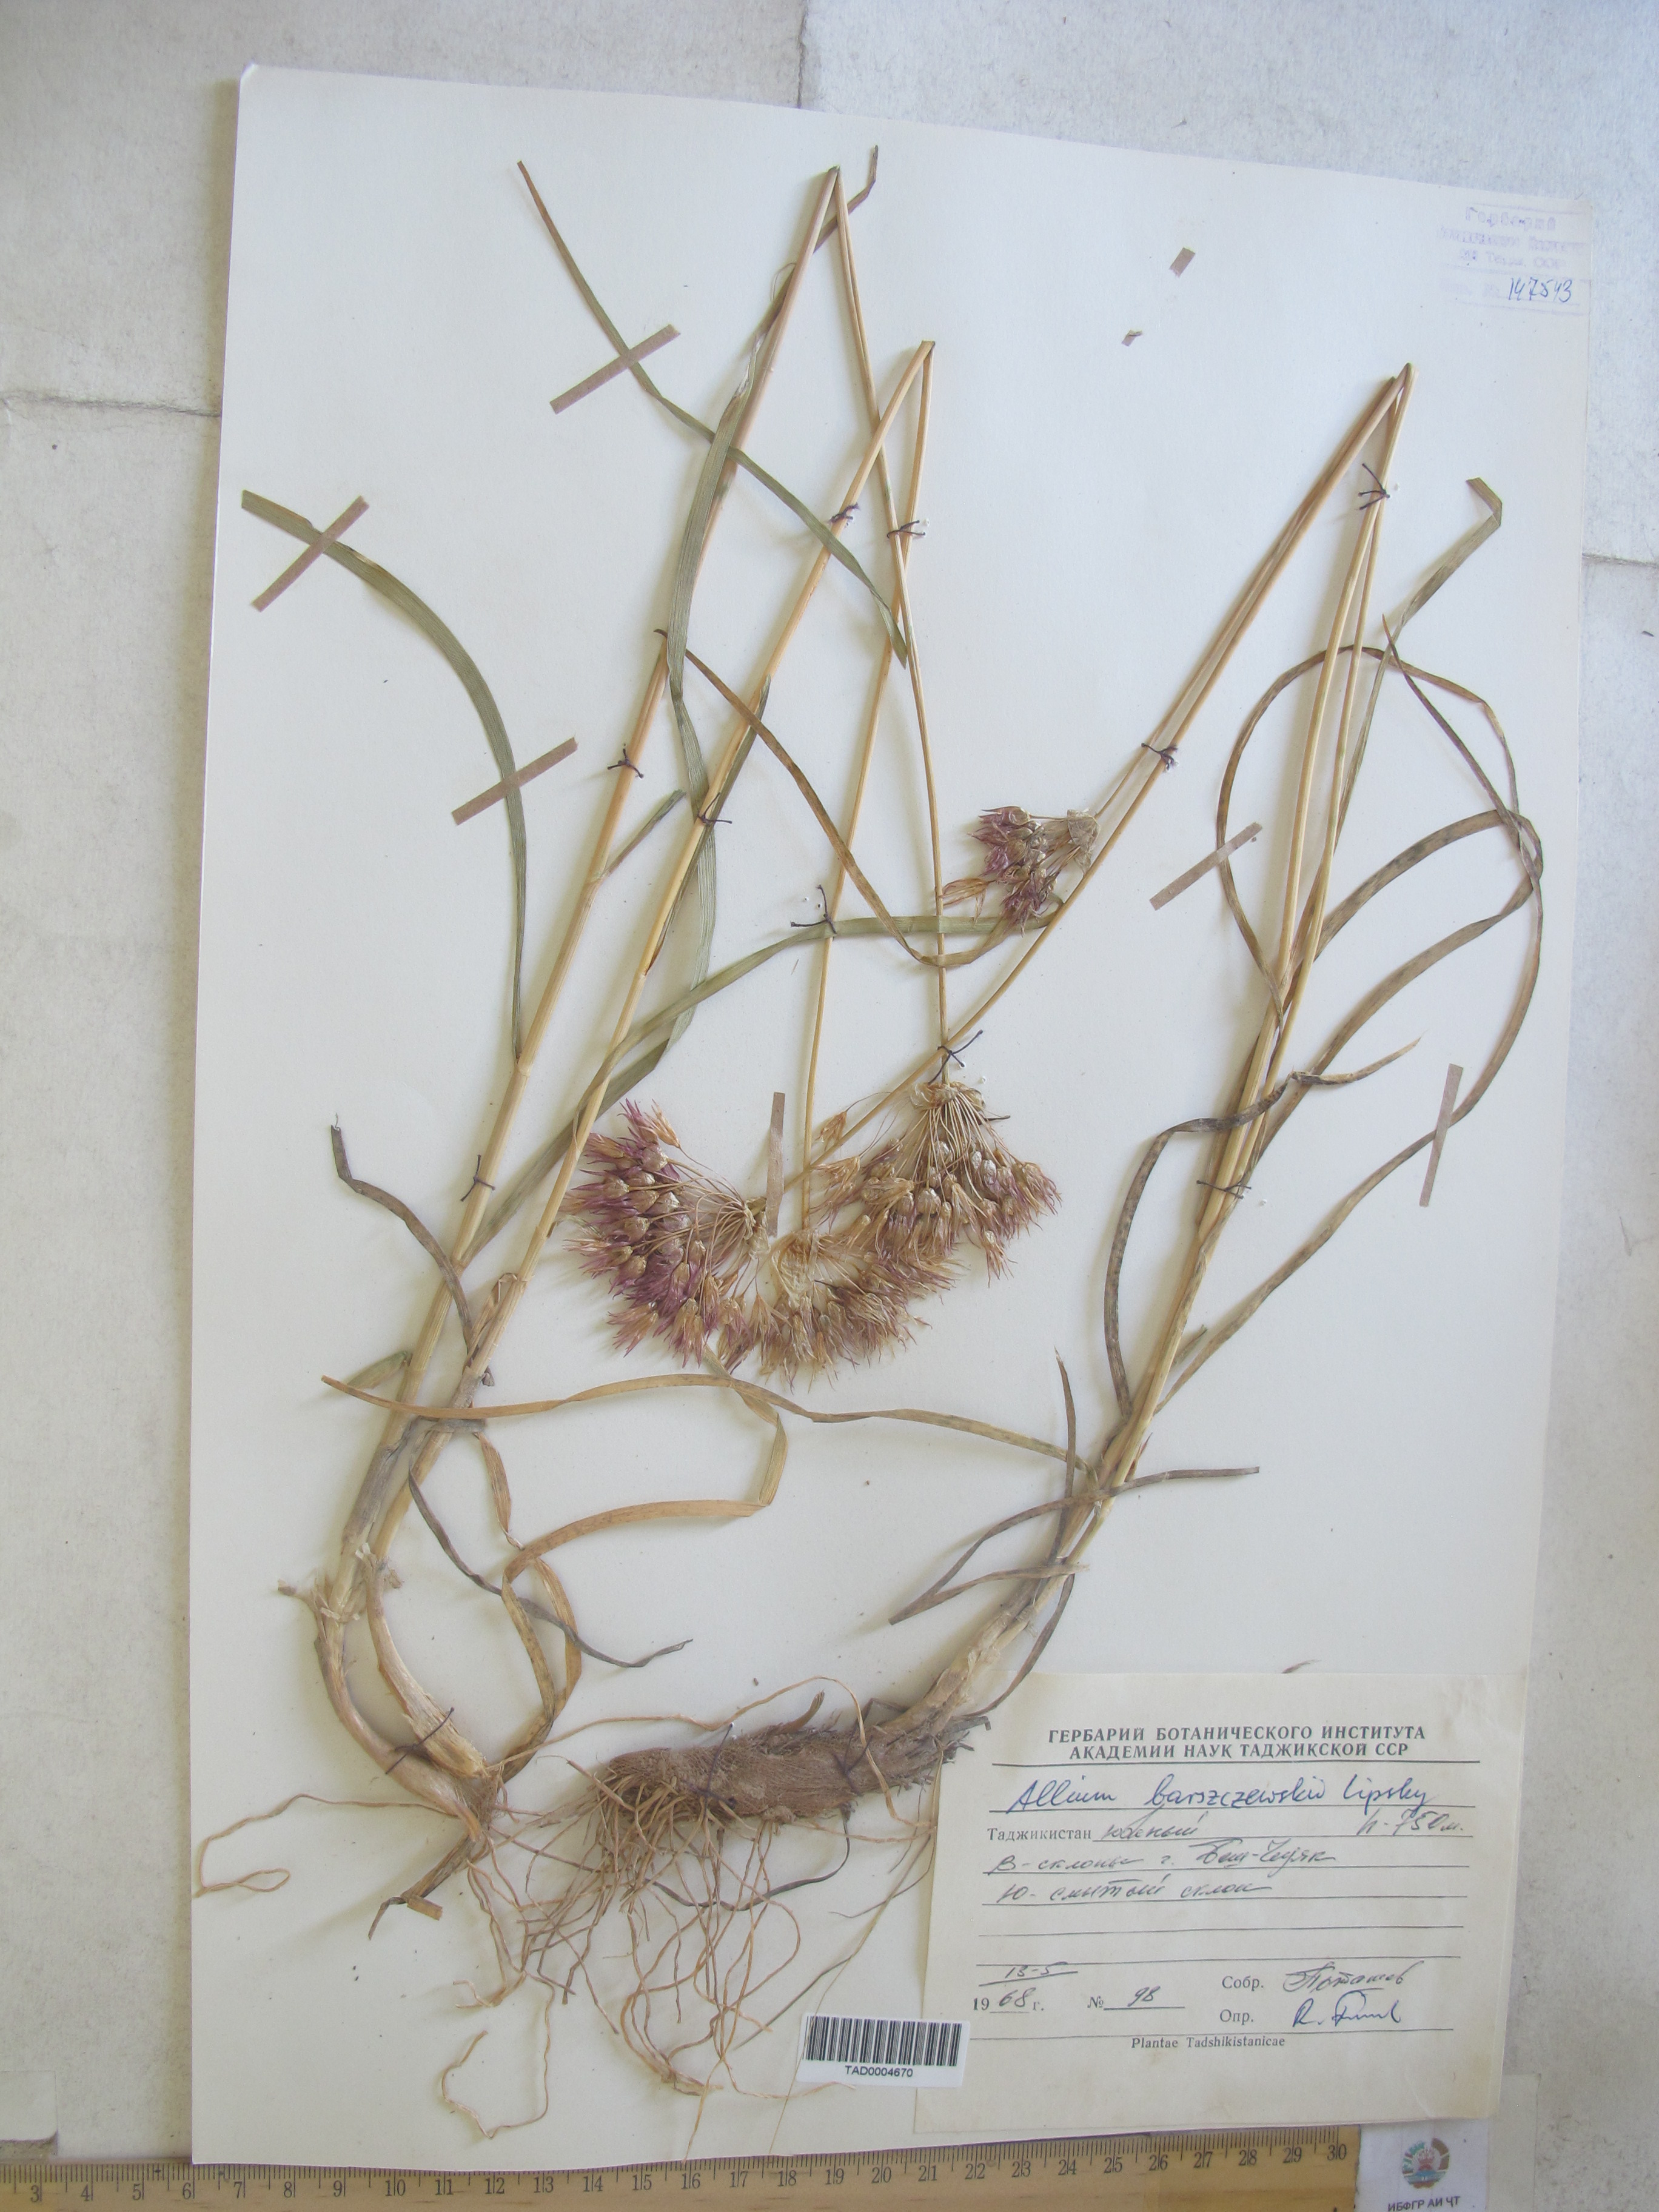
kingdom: Plantae
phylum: Tracheophyta
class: Liliopsida
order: Asparagales
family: Amaryllidaceae
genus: Allium
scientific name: Allium barsczewskii
